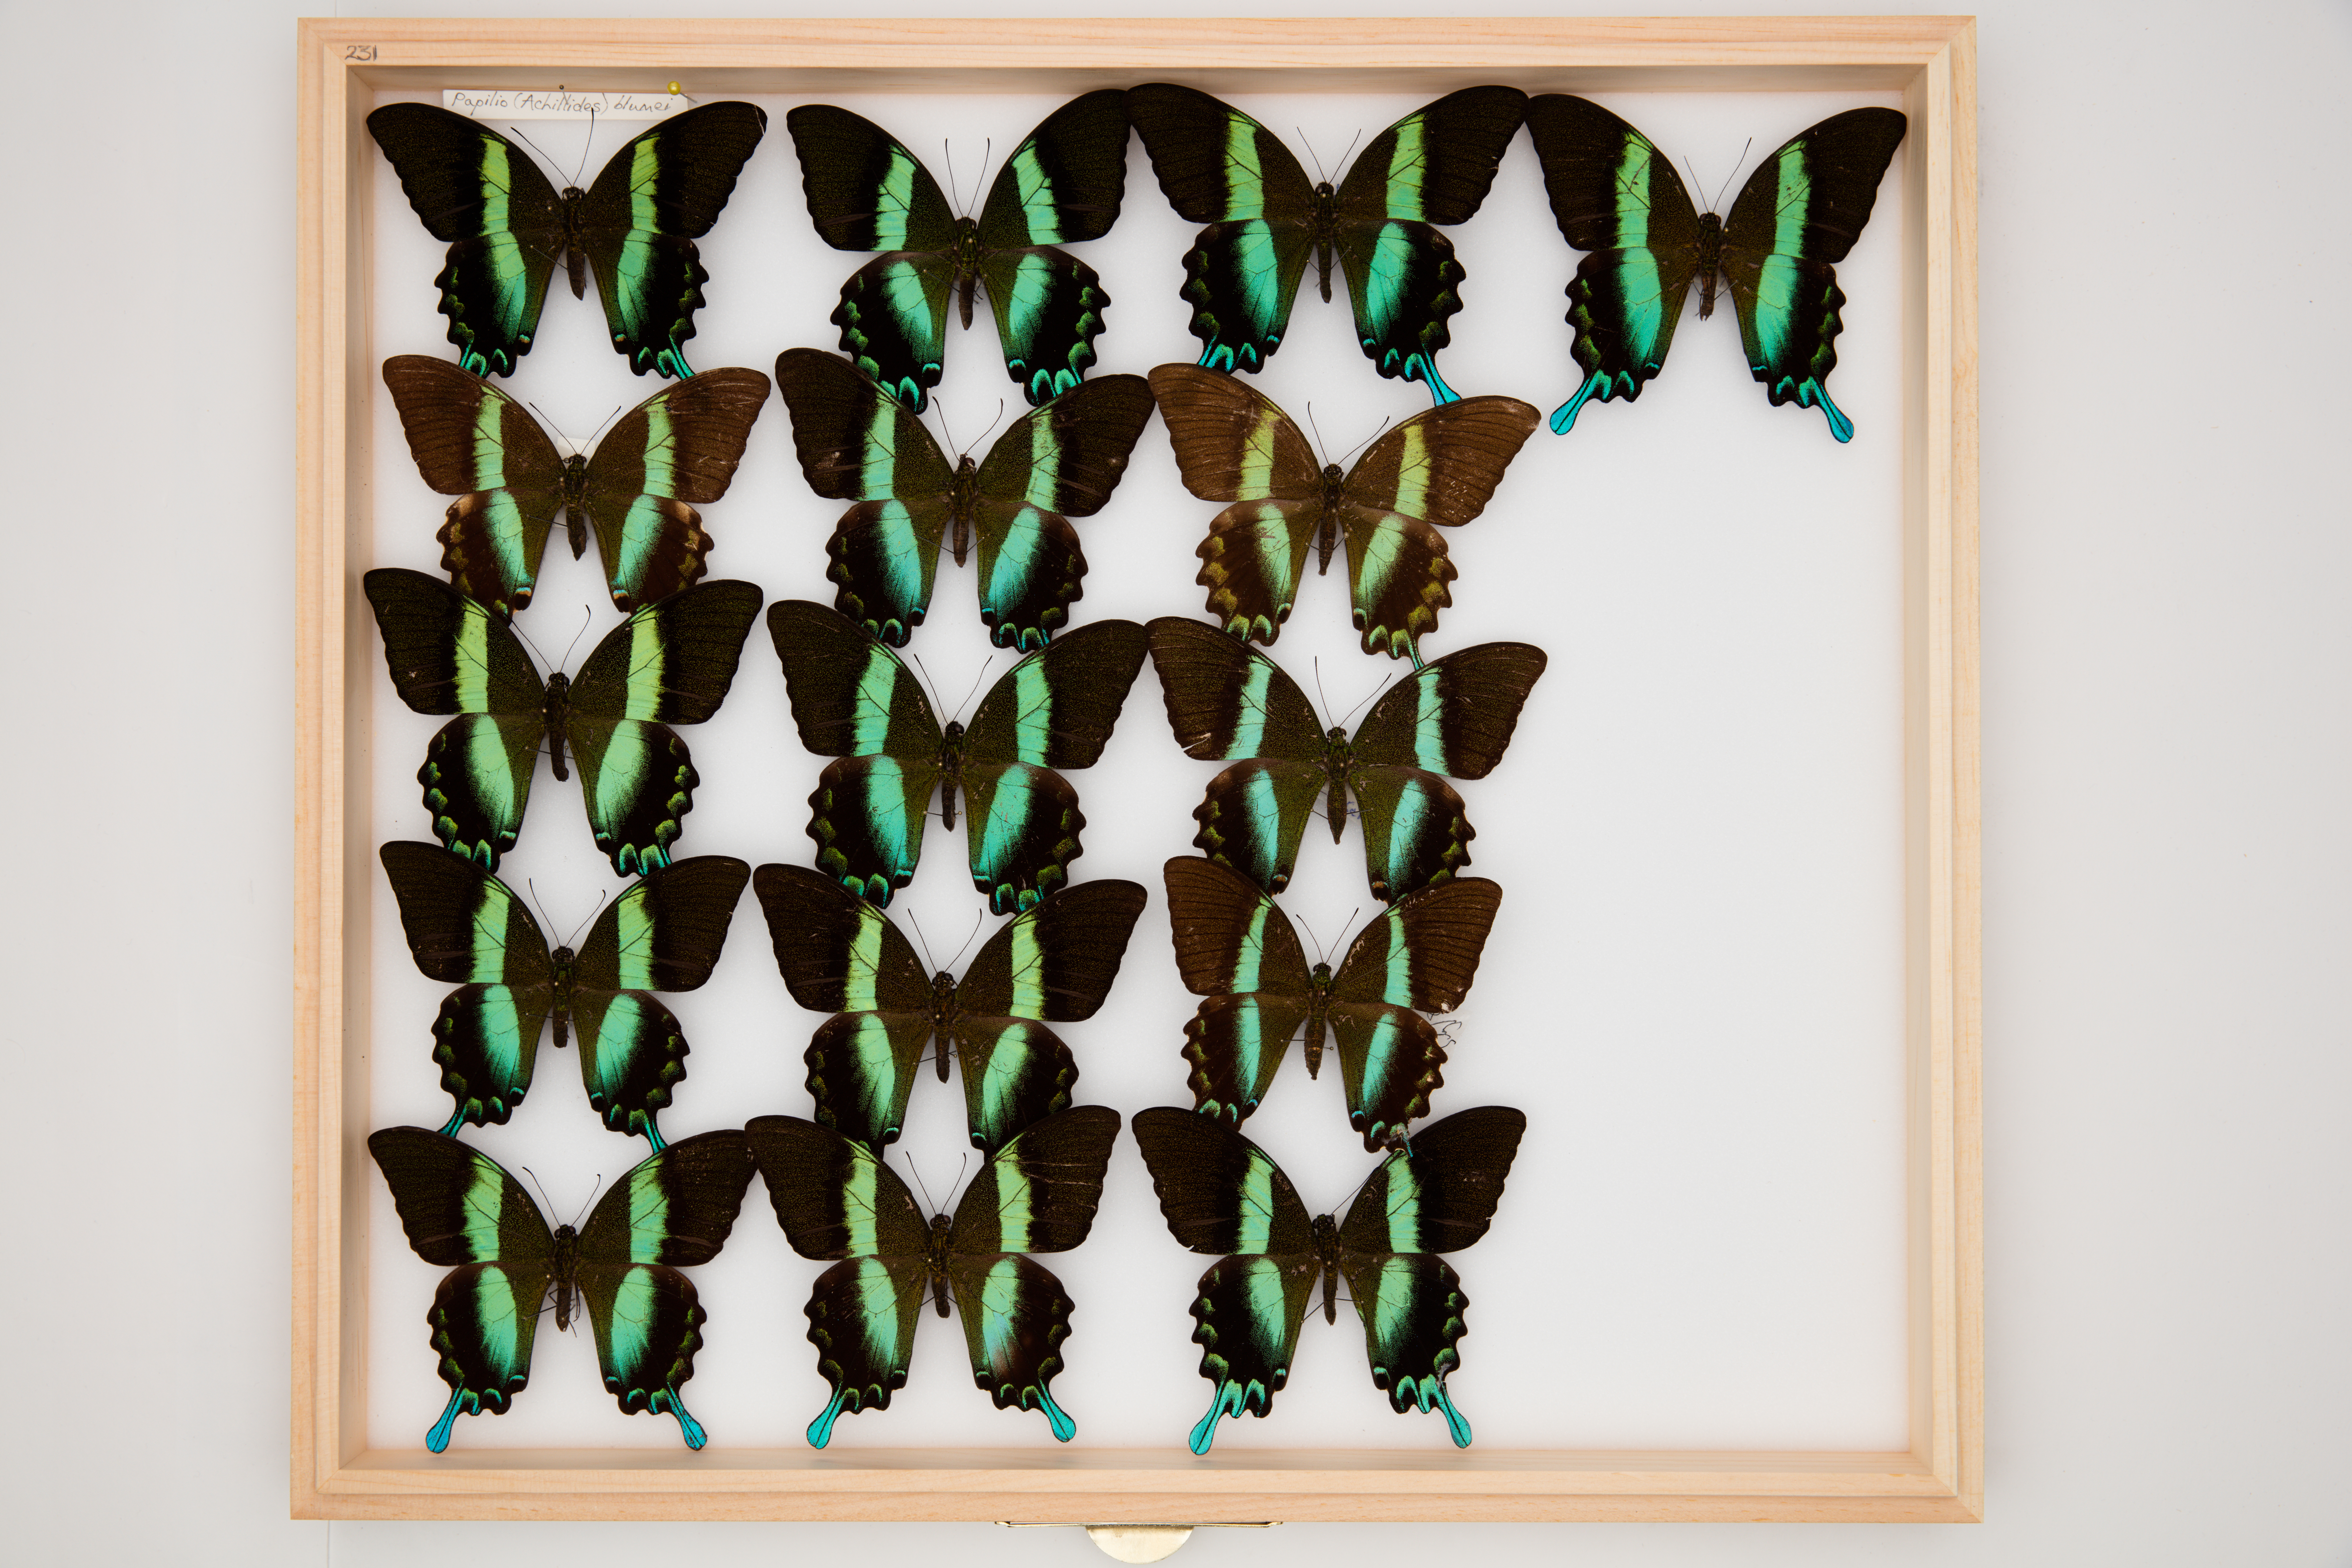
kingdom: Animalia
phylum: Arthropoda
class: Insecta
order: Lepidoptera
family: Papilionidae
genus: Papilio
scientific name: Papilio blumei
